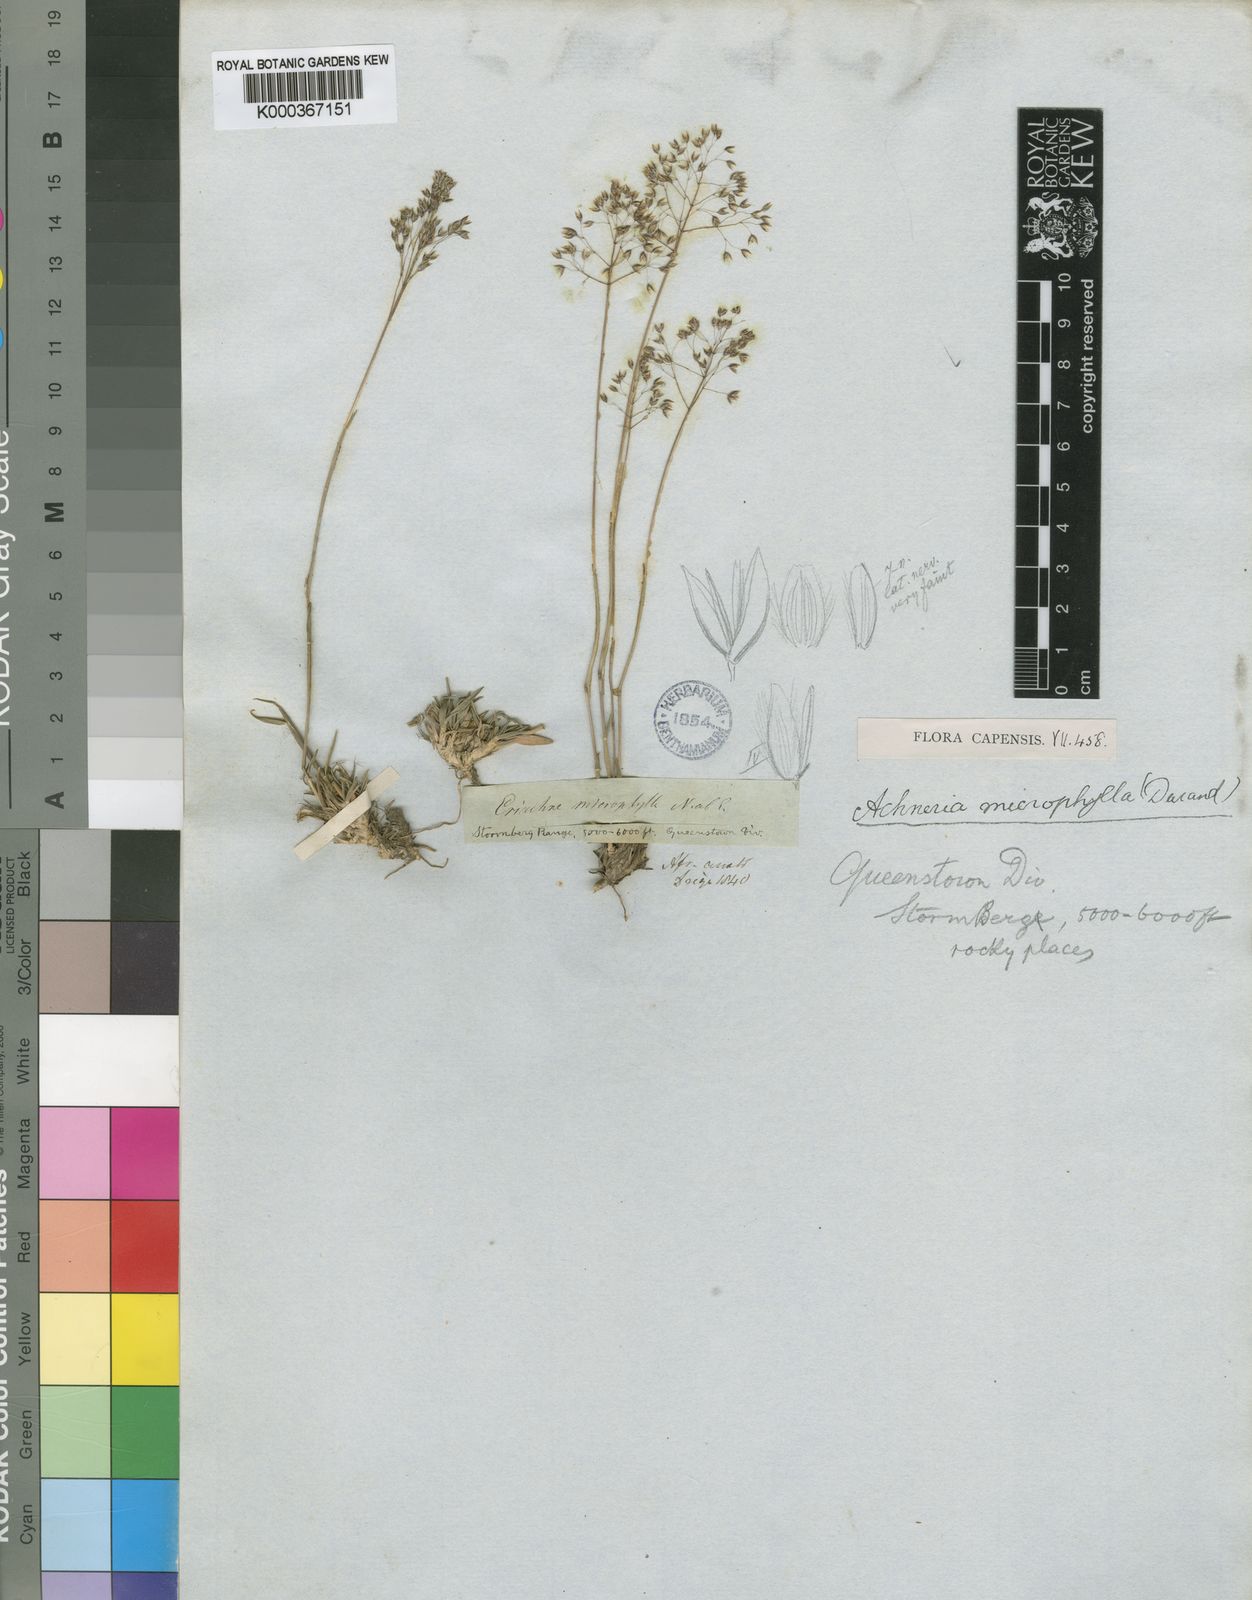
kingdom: Plantae
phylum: Tracheophyta
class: Liliopsida
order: Poales
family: Poaceae
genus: Pentameris
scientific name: Pentameris microphylla
